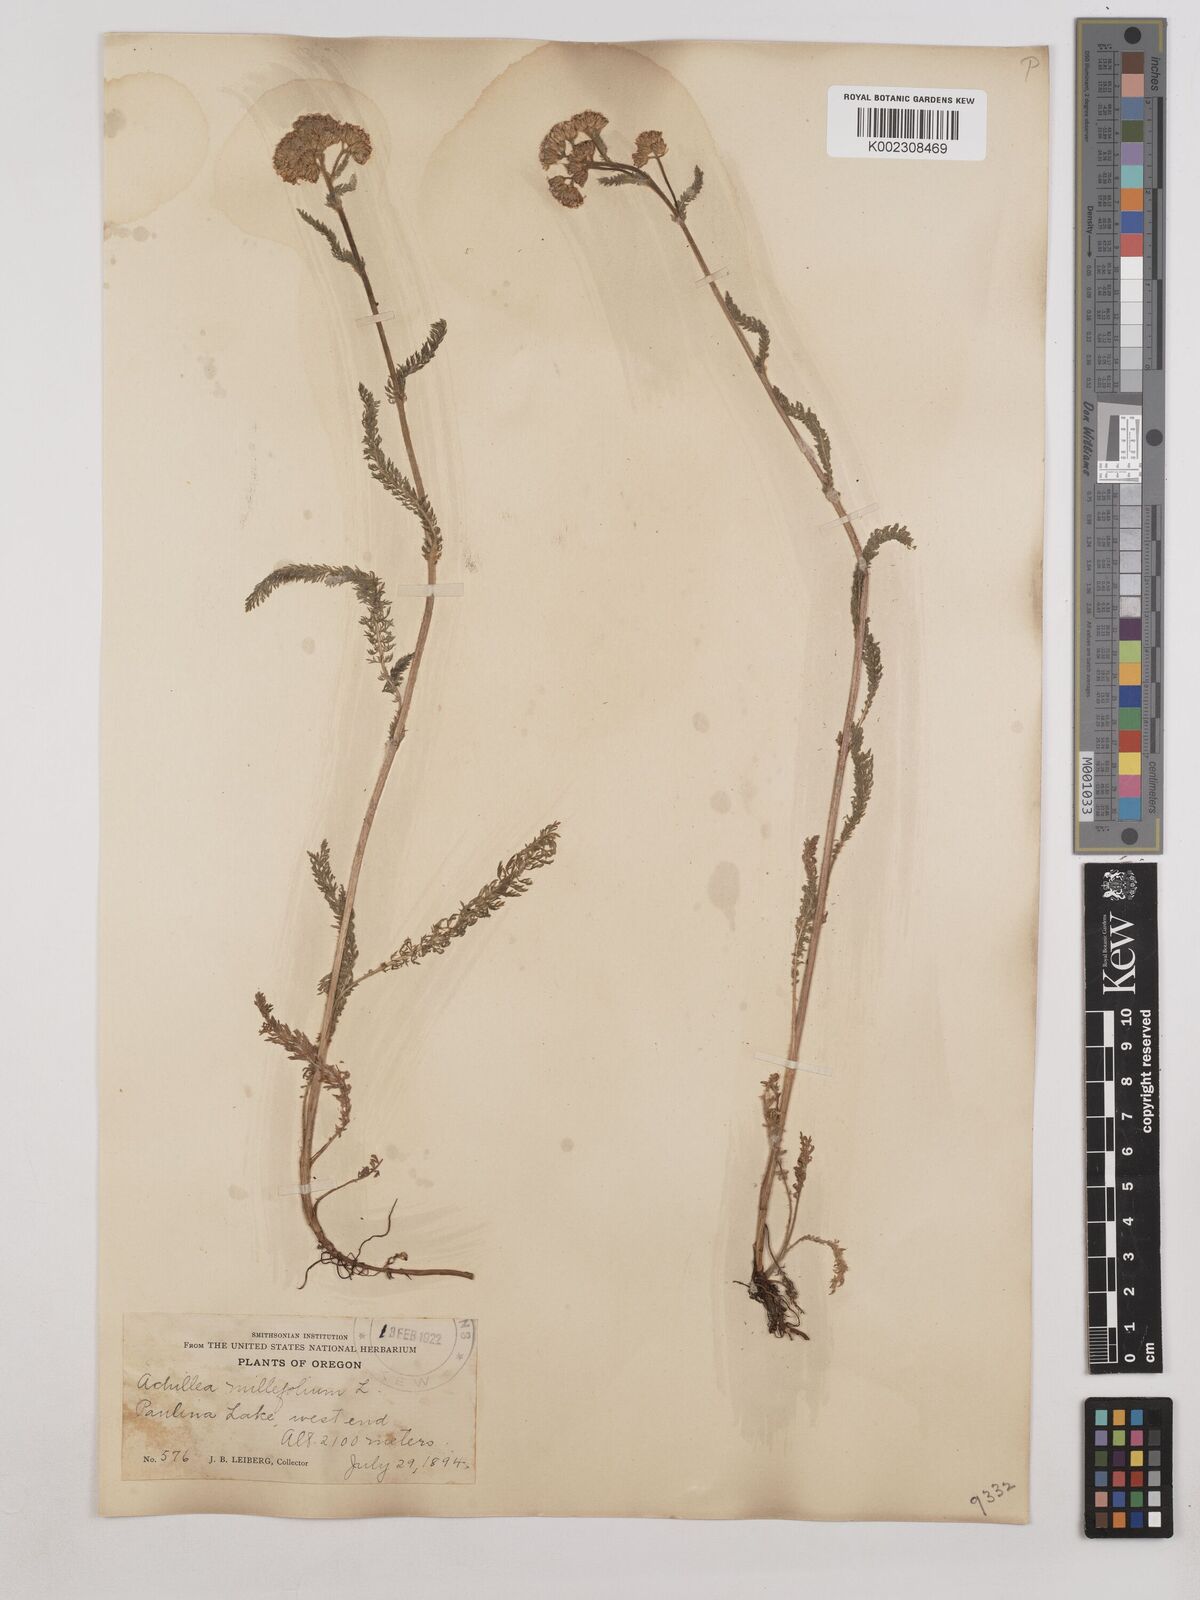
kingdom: Plantae
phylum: Tracheophyta
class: Magnoliopsida
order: Asterales
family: Asteraceae
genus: Achillea
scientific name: Achillea millefolium
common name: Yarrow
